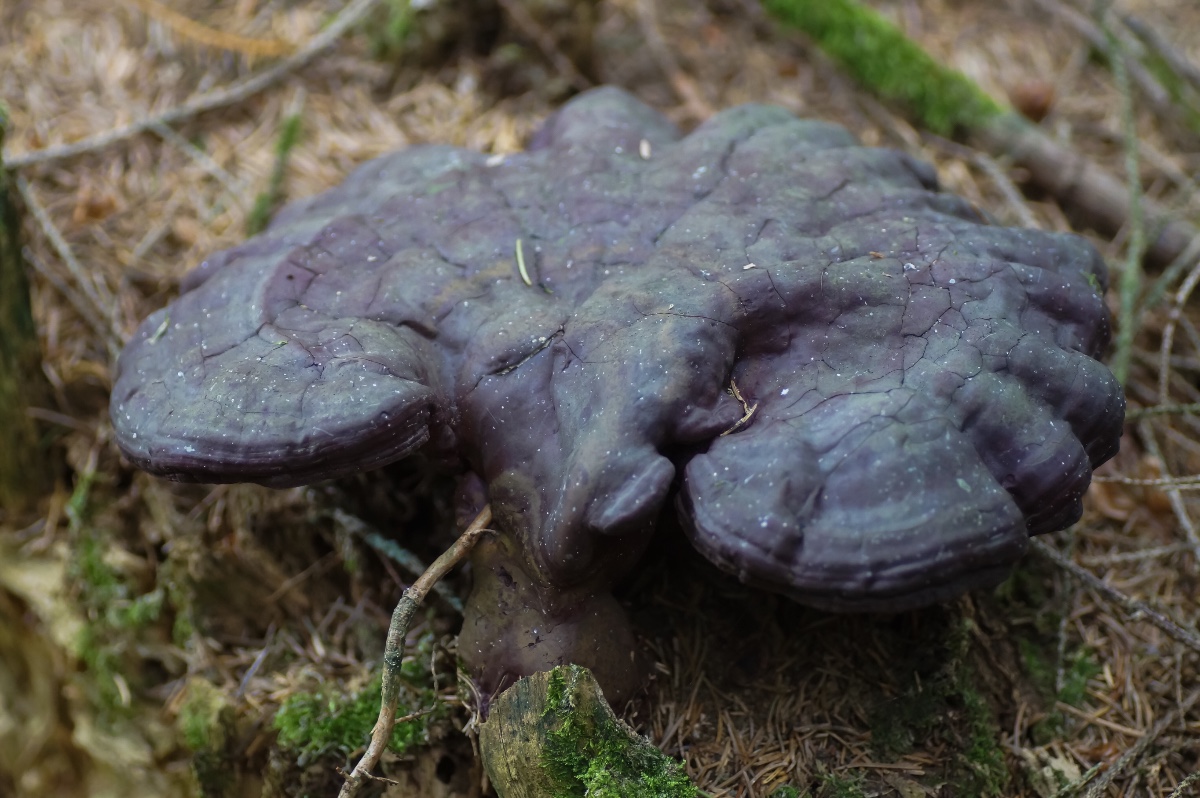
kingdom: Fungi
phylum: Basidiomycota
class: Agaricomycetes
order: Polyporales
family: Polyporaceae
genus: Ganoderma
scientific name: Ganoderma lucidum
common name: skinnende lakporesvamp
